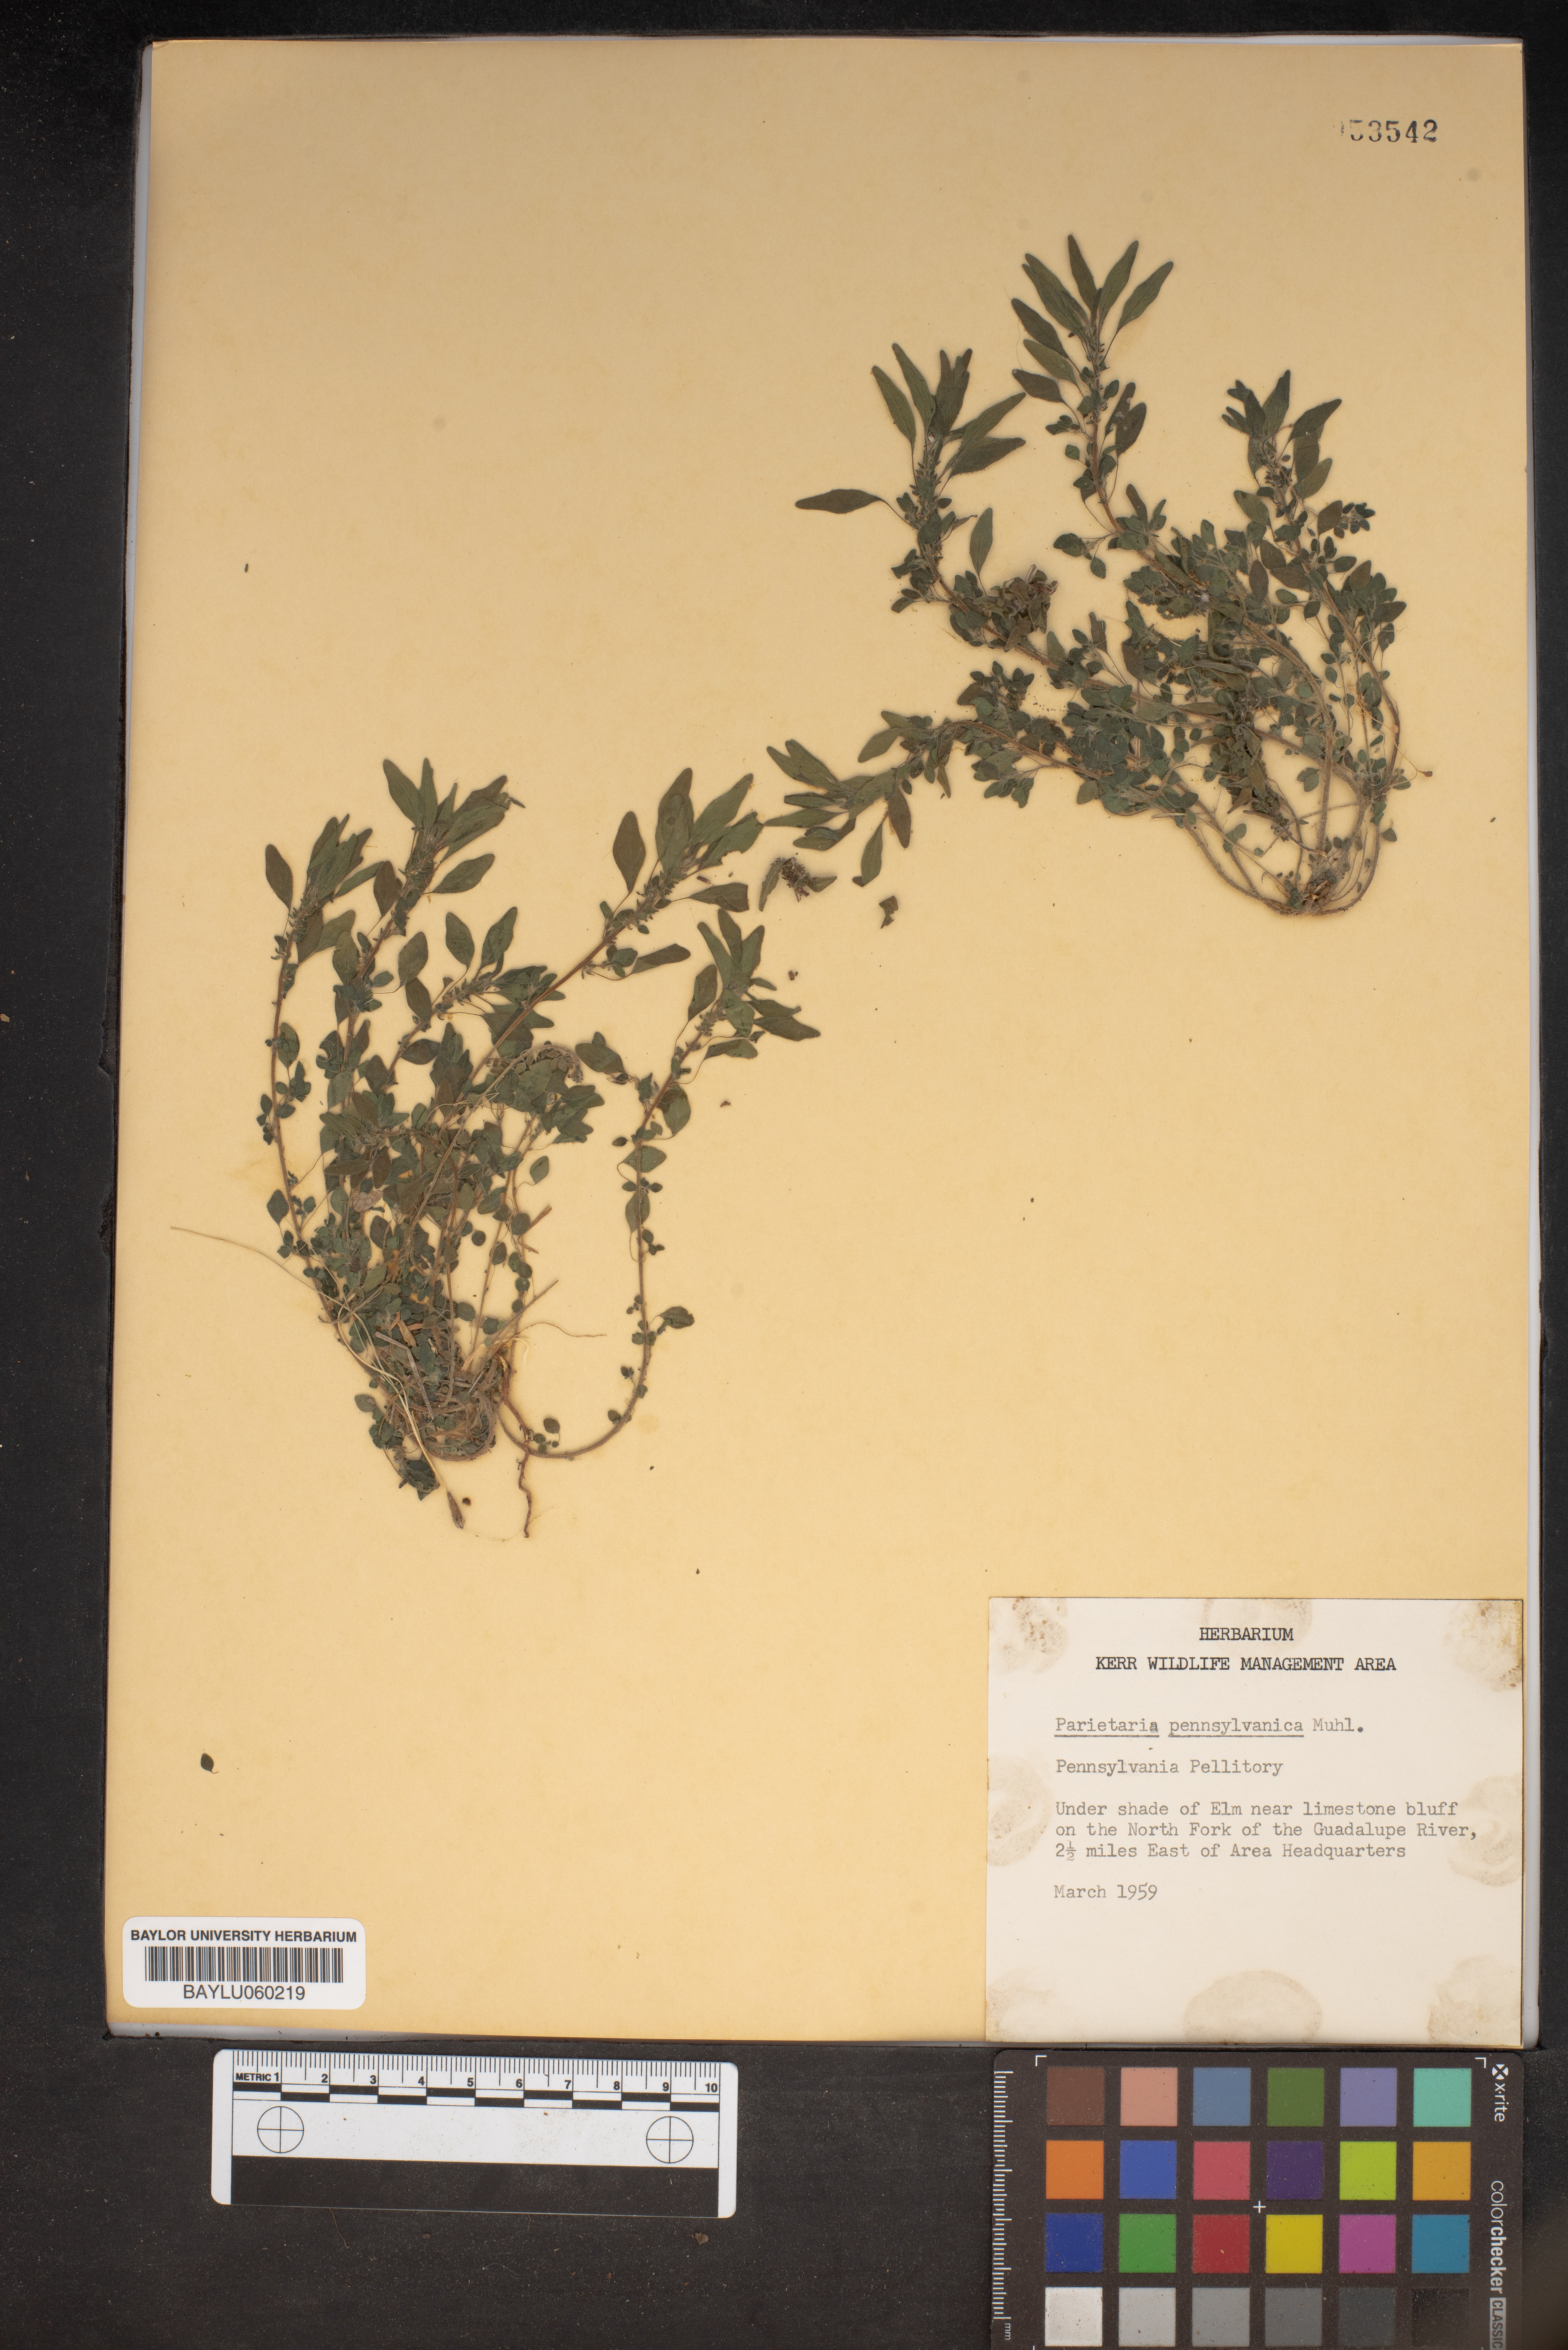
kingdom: Plantae
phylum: Tracheophyta
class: Magnoliopsida
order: Rosales
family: Urticaceae
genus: Parietaria
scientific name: Parietaria pensylvanica
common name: Pennsylvania pellitory
